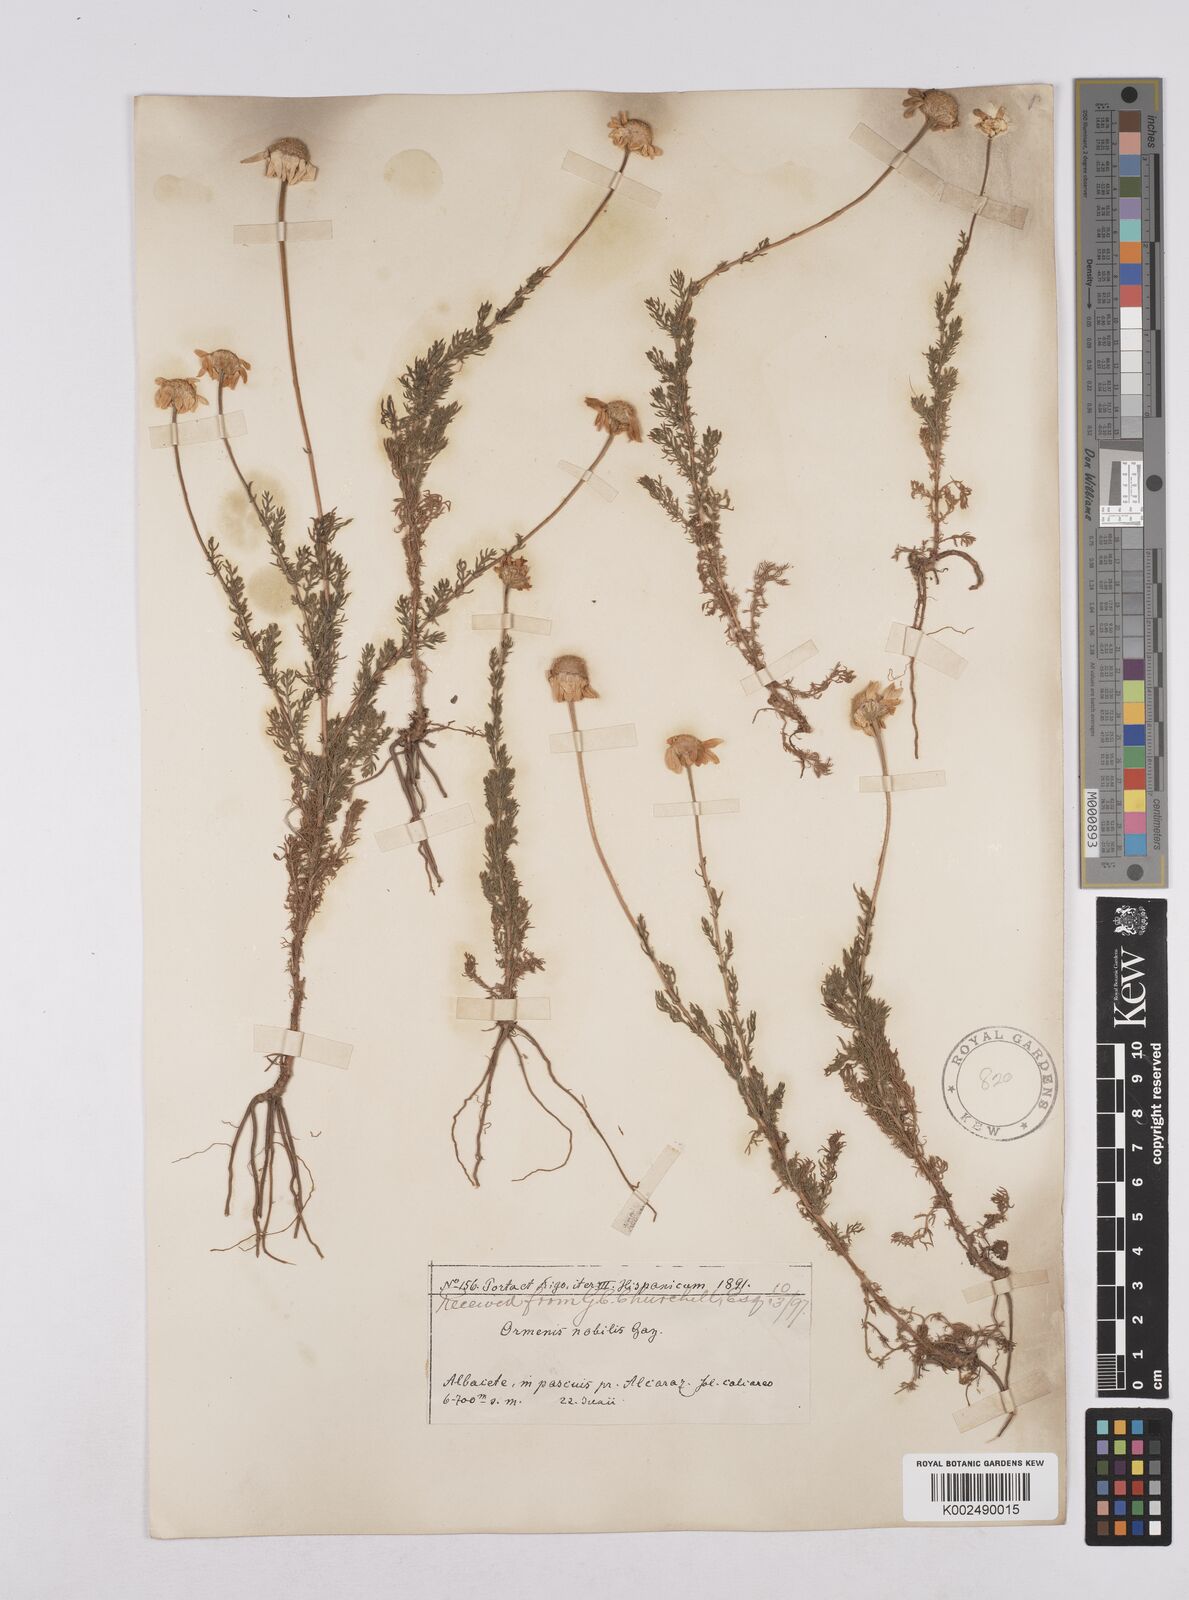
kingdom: Plantae
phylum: Tracheophyta
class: Magnoliopsida
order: Asterales
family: Asteraceae
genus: Chamaemelum
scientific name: Chamaemelum
